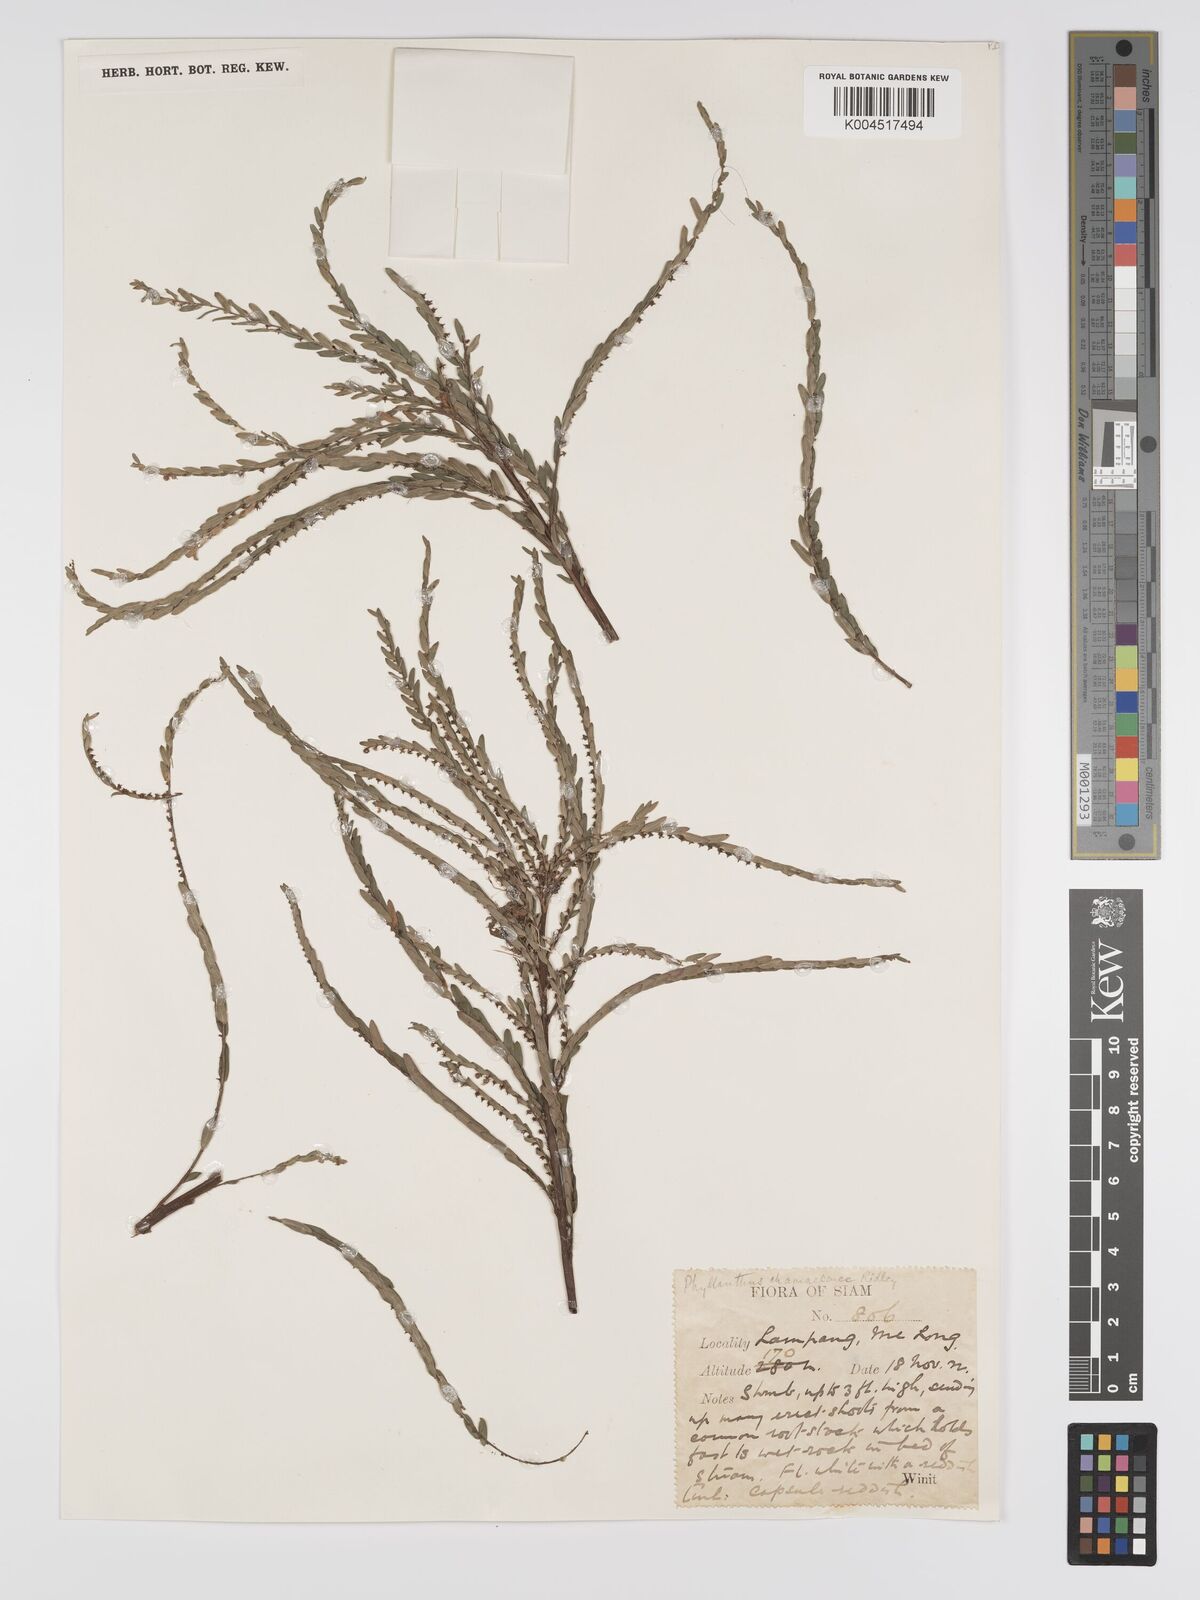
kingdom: Plantae
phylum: Tracheophyta
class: Magnoliopsida
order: Malpighiales
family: Phyllanthaceae
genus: Phyllanthus
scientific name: Phyllanthus chamaepeuce
